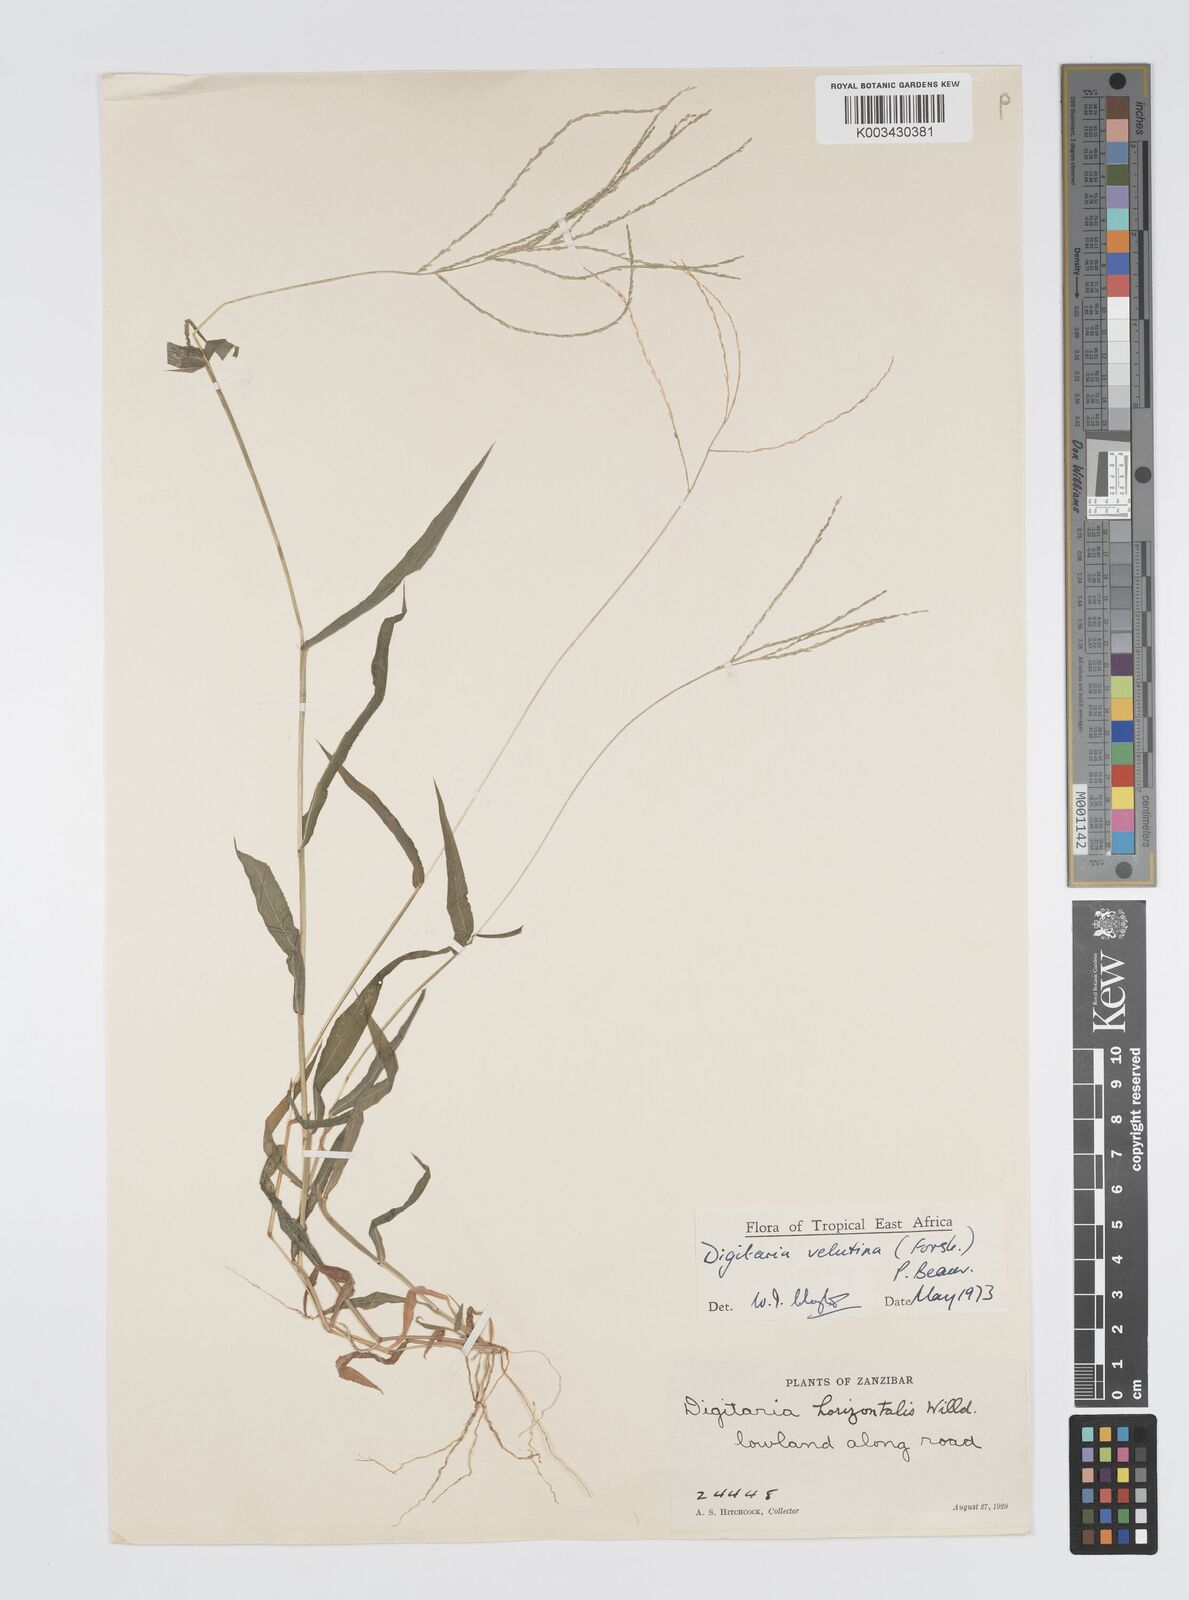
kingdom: Plantae
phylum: Tracheophyta
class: Liliopsida
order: Poales
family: Poaceae
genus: Digitaria
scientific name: Digitaria velutina
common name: Long-plume finger grass
